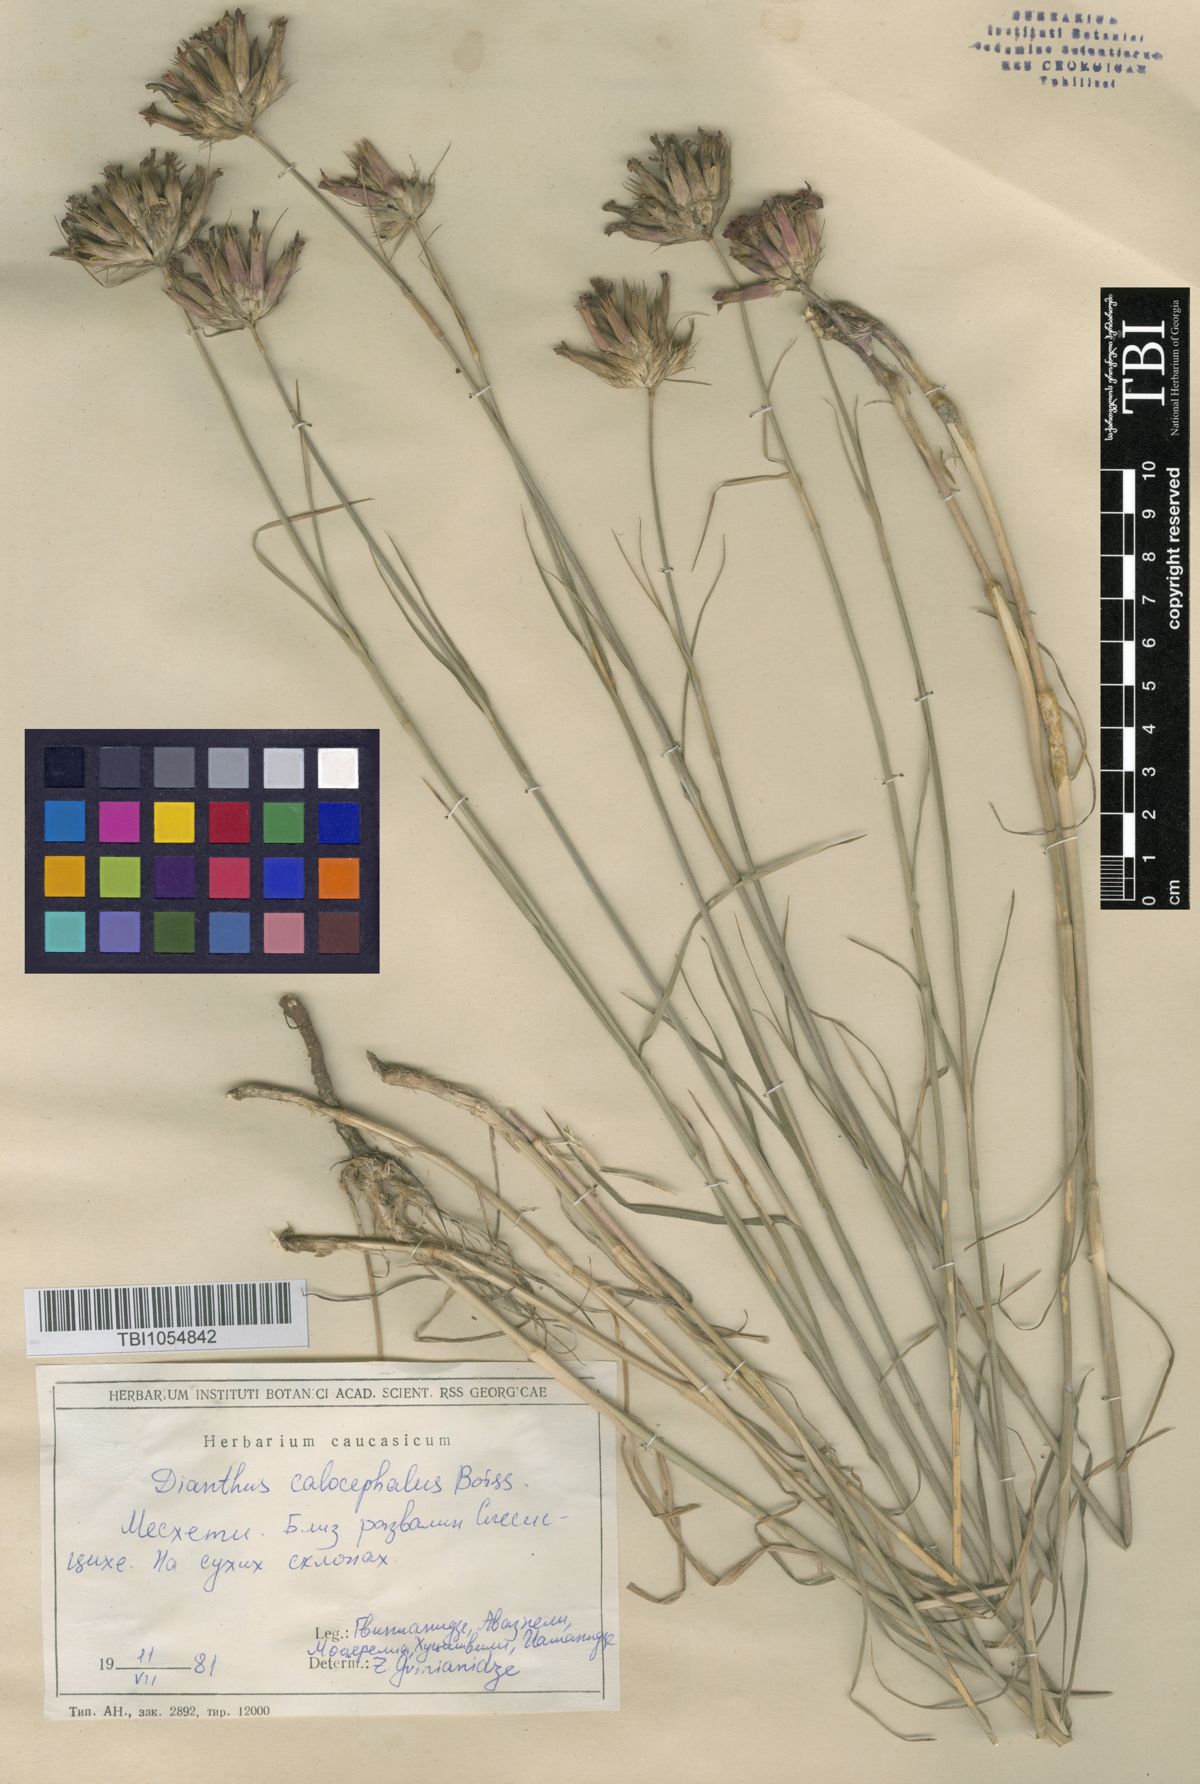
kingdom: Plantae
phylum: Tracheophyta
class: Magnoliopsida
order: Caryophyllales
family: Caryophyllaceae
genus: Dianthus
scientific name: Dianthus cruentus
